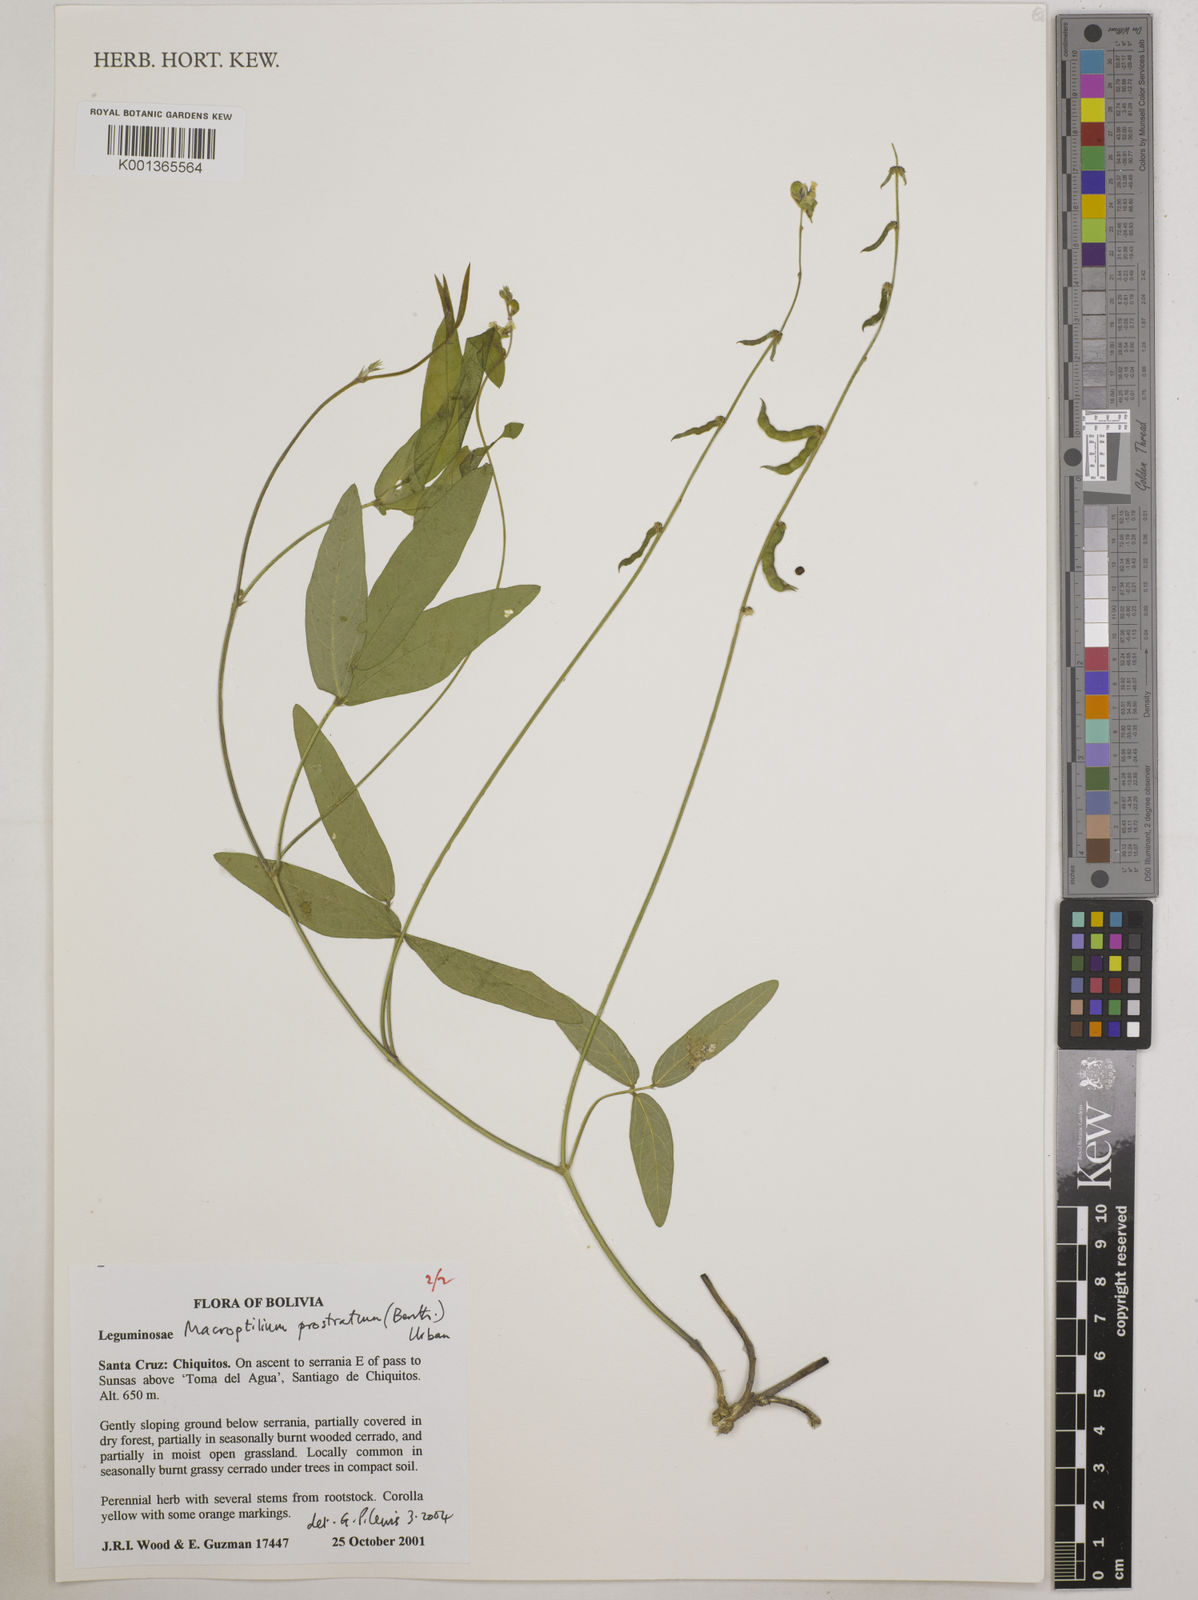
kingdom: Plantae
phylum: Tracheophyta
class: Magnoliopsida
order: Fabales
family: Fabaceae
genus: Macroptilium
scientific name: Macroptilium prostratum
